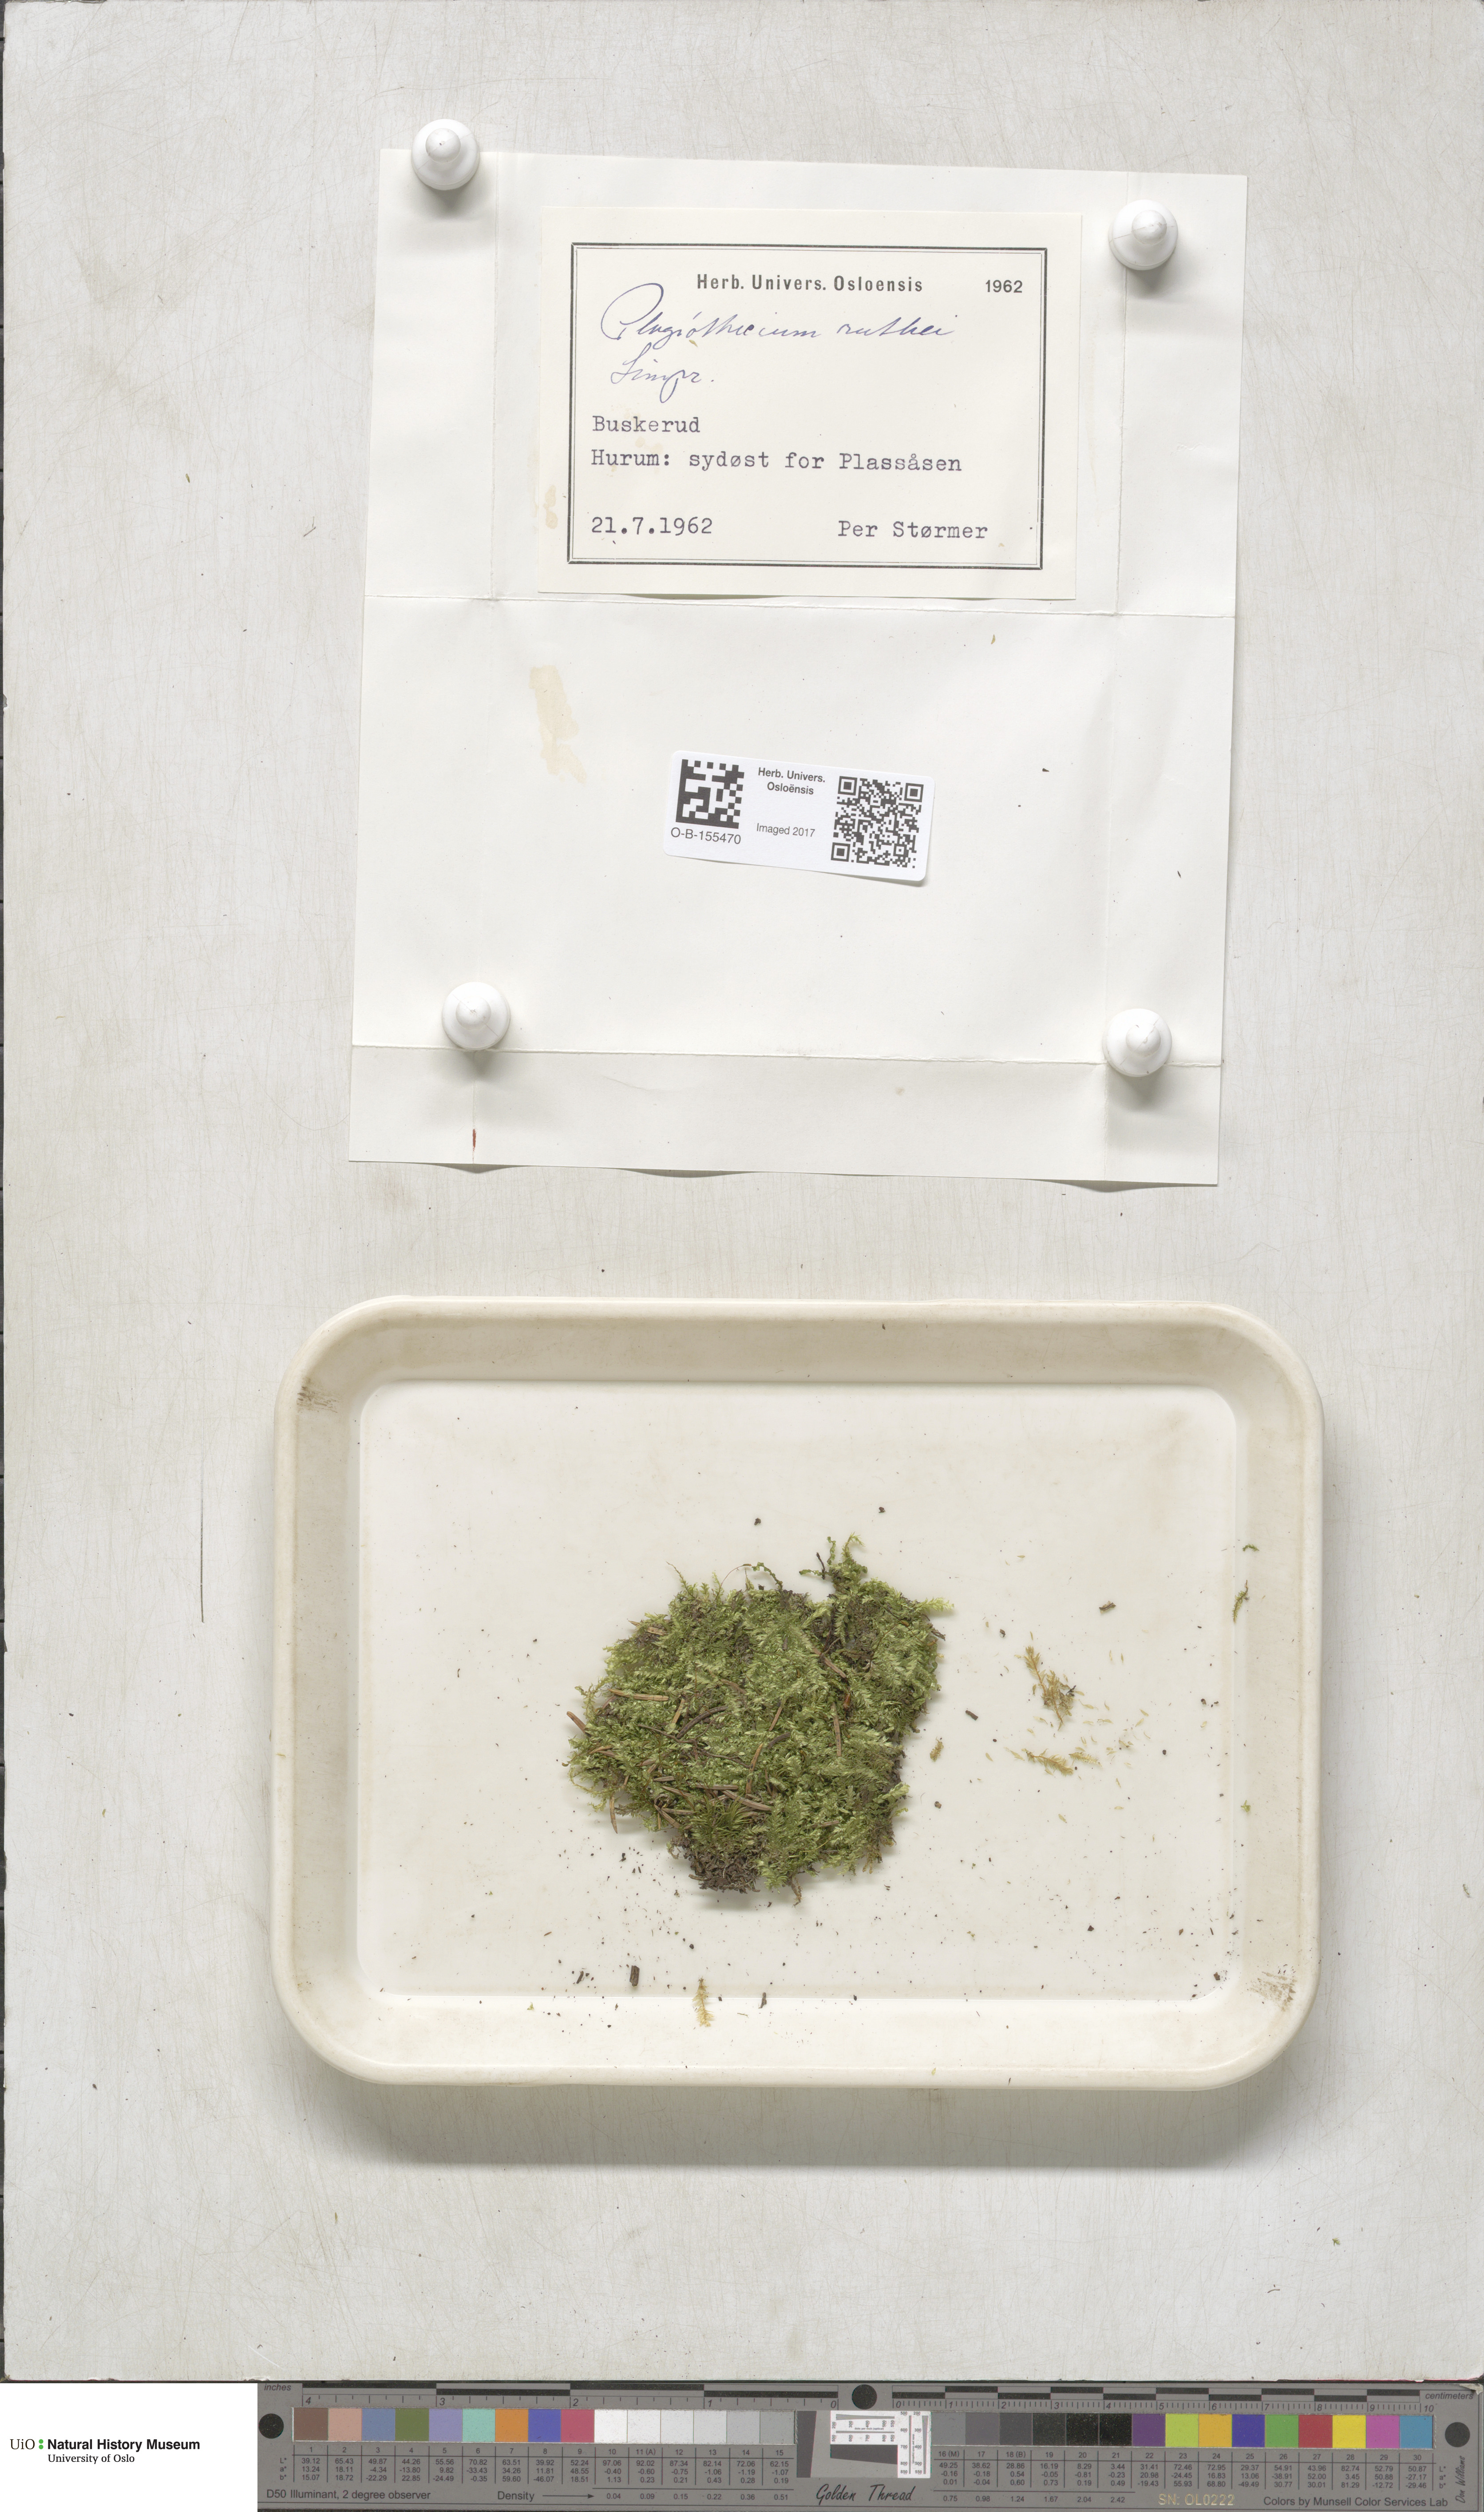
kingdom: Plantae
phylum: Bryophyta
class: Bryopsida
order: Hypnales
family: Plagiotheciaceae
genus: Plagiothecium
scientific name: Plagiothecium denticulatum
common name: Dented silk moss
